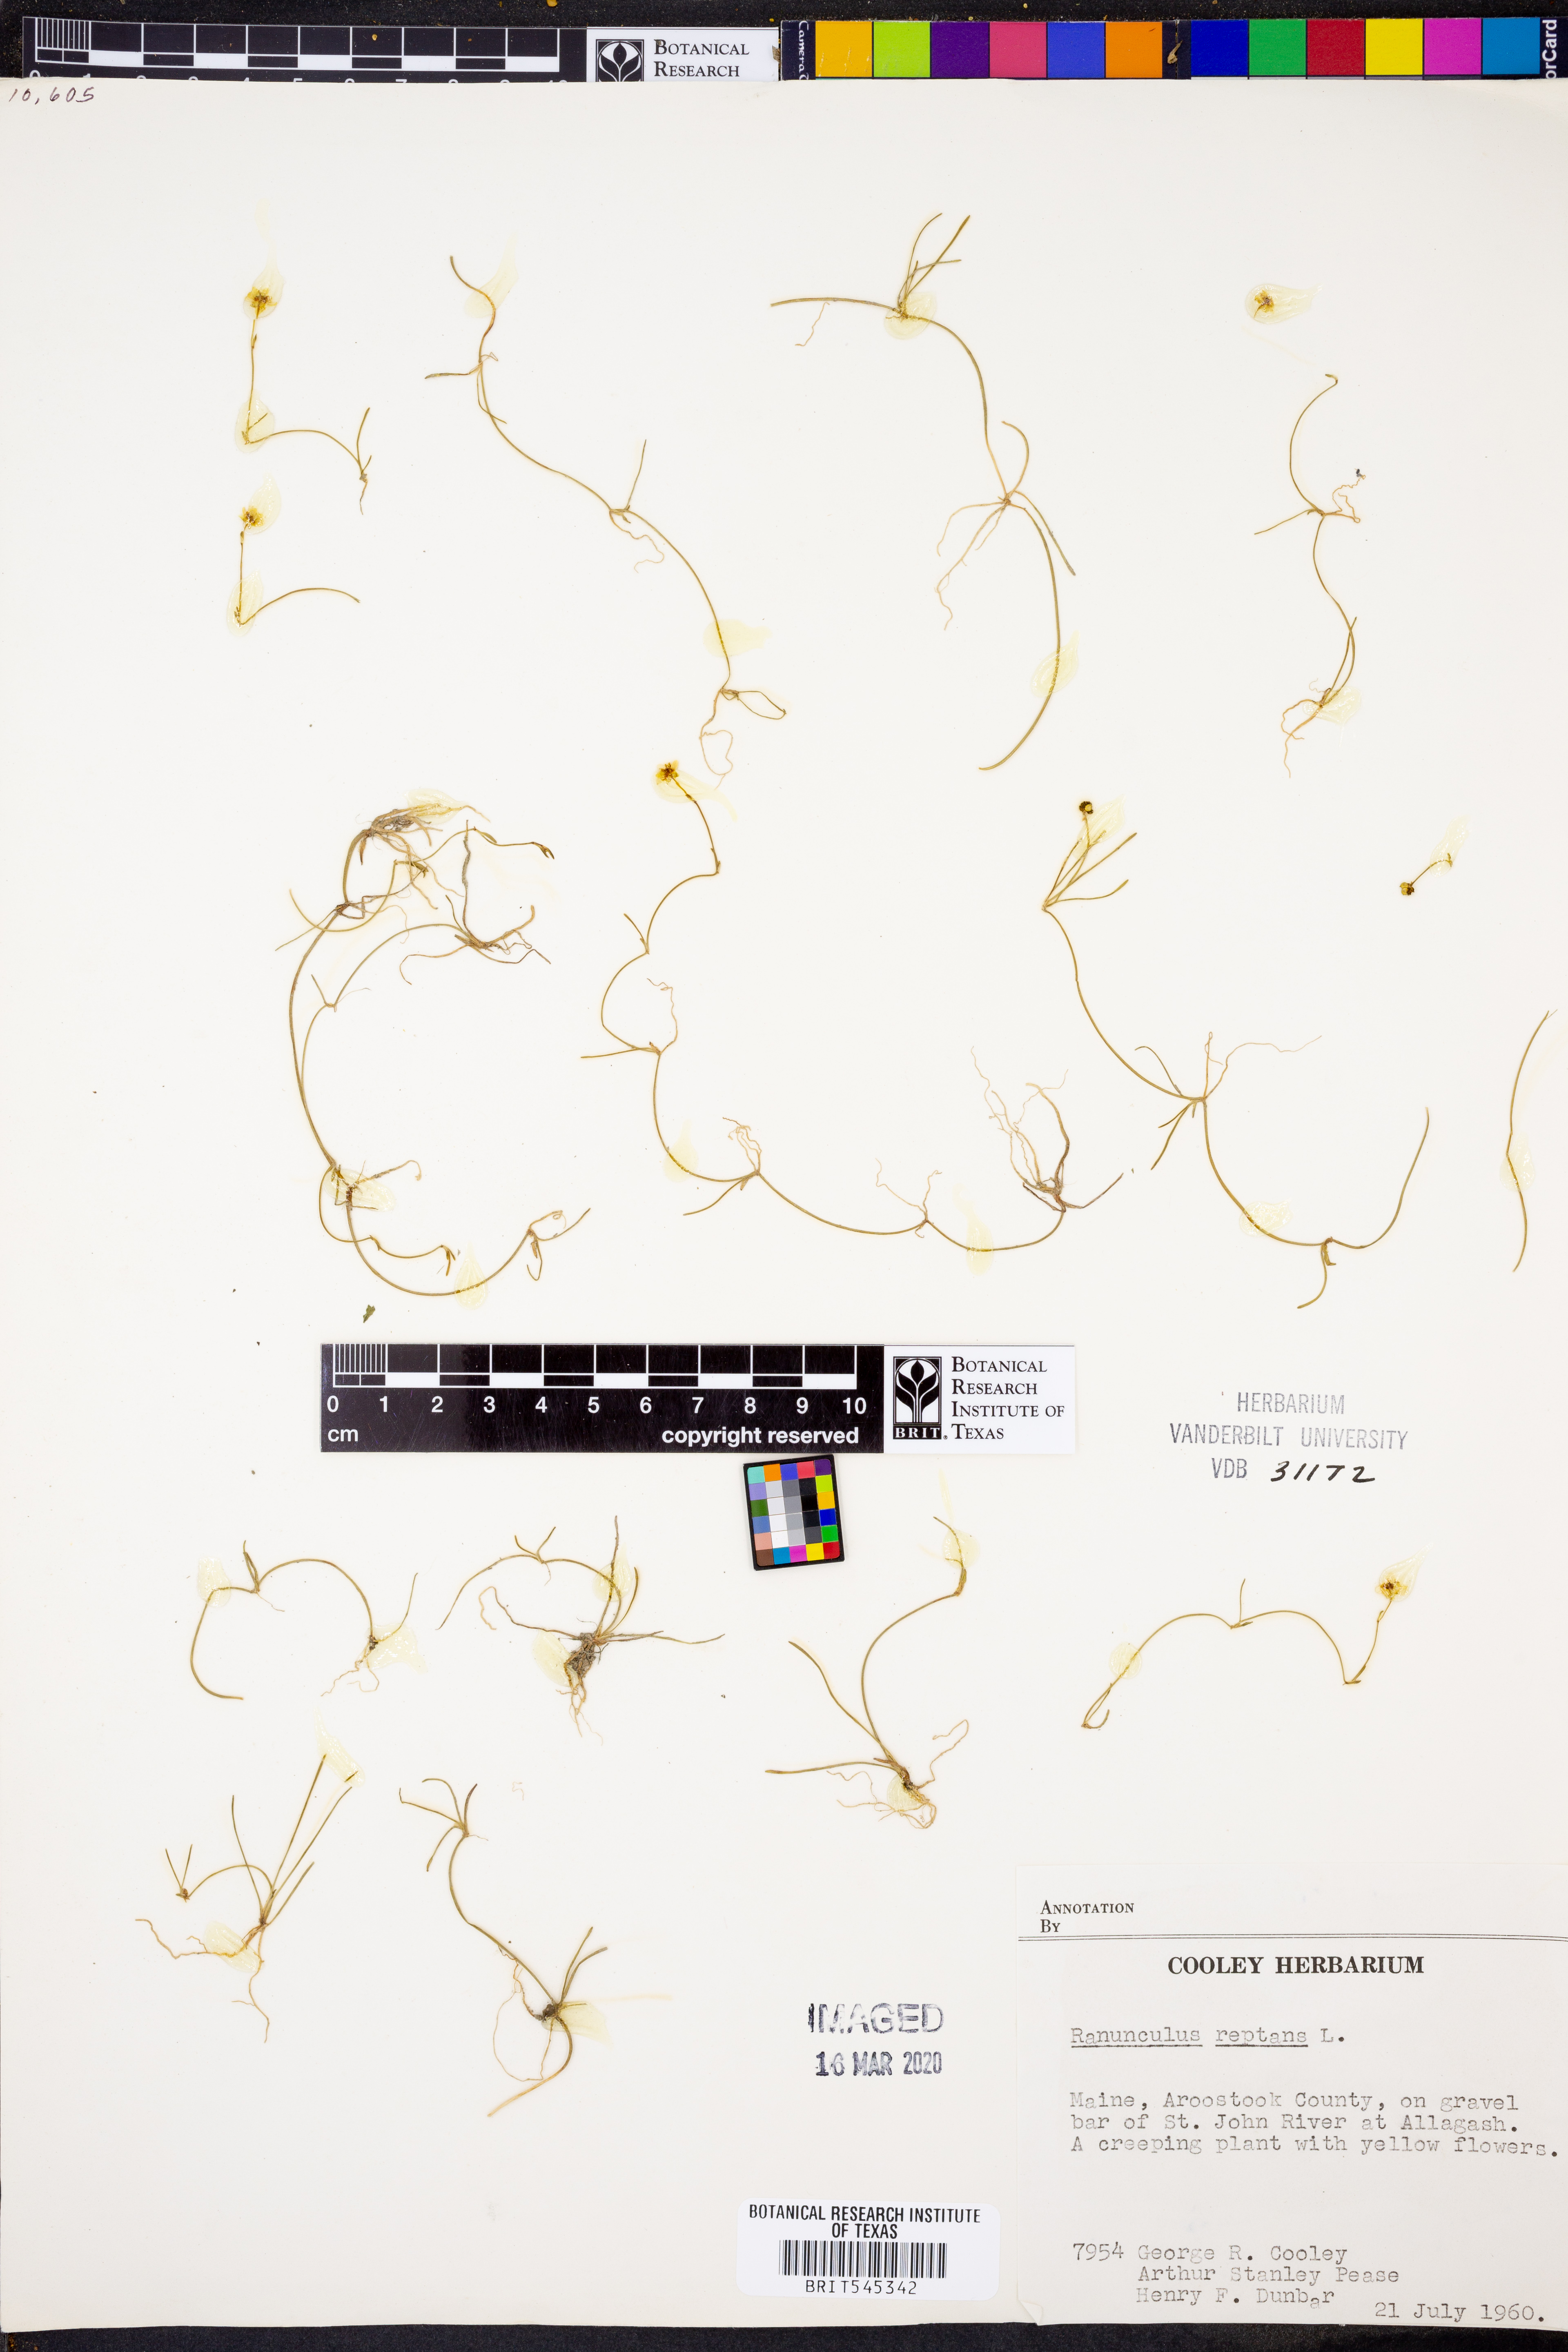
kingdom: Plantae
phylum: Tracheophyta
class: Magnoliopsida
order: Ranunculales
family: Ranunculaceae
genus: Ranunculus
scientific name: Ranunculus reptans
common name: Creeping spearwort
